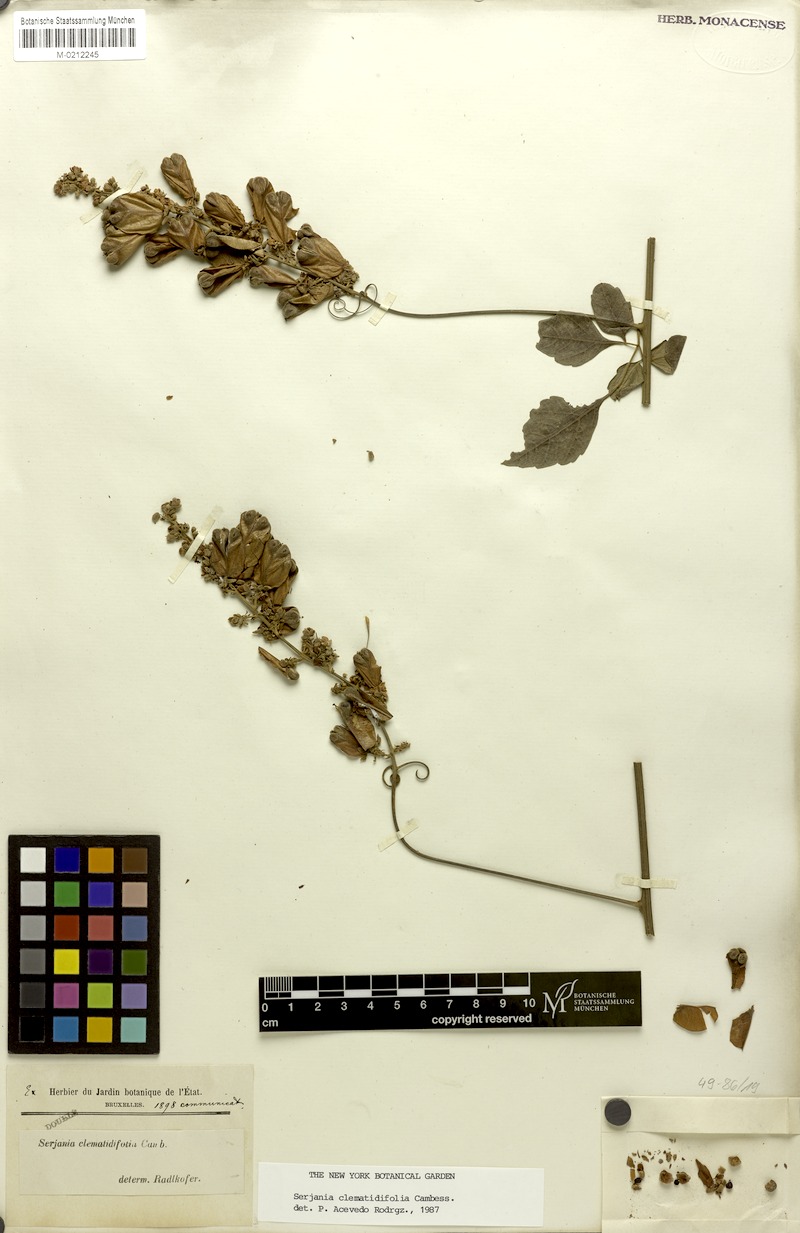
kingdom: Plantae
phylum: Tracheophyta
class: Magnoliopsida
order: Sapindales
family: Sapindaceae
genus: Serjania
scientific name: Serjania clematidifolia
